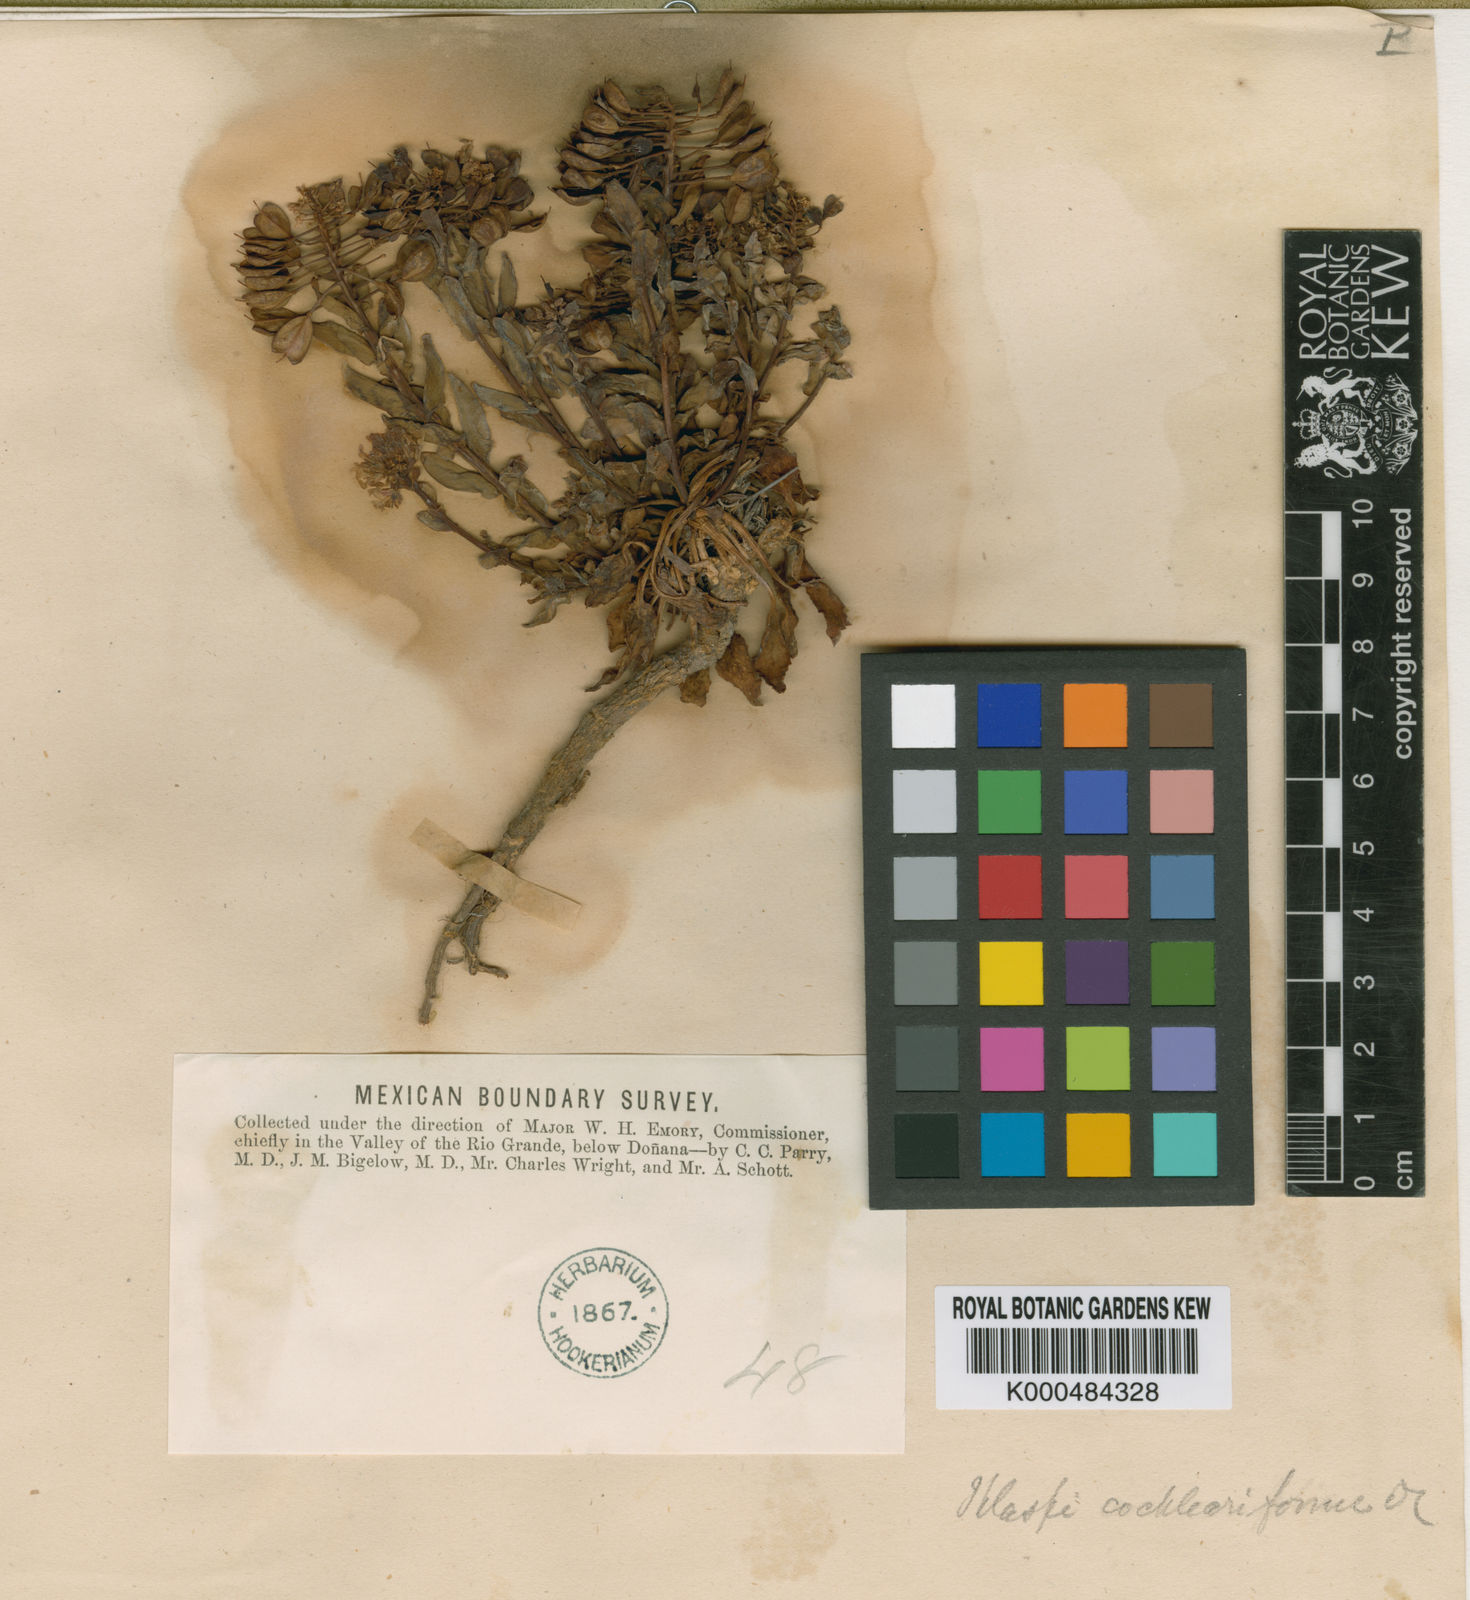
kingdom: Plantae
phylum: Tracheophyta
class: Magnoliopsida
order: Brassicales
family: Brassicaceae
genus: Noccaea
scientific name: Noccaea alpestris
